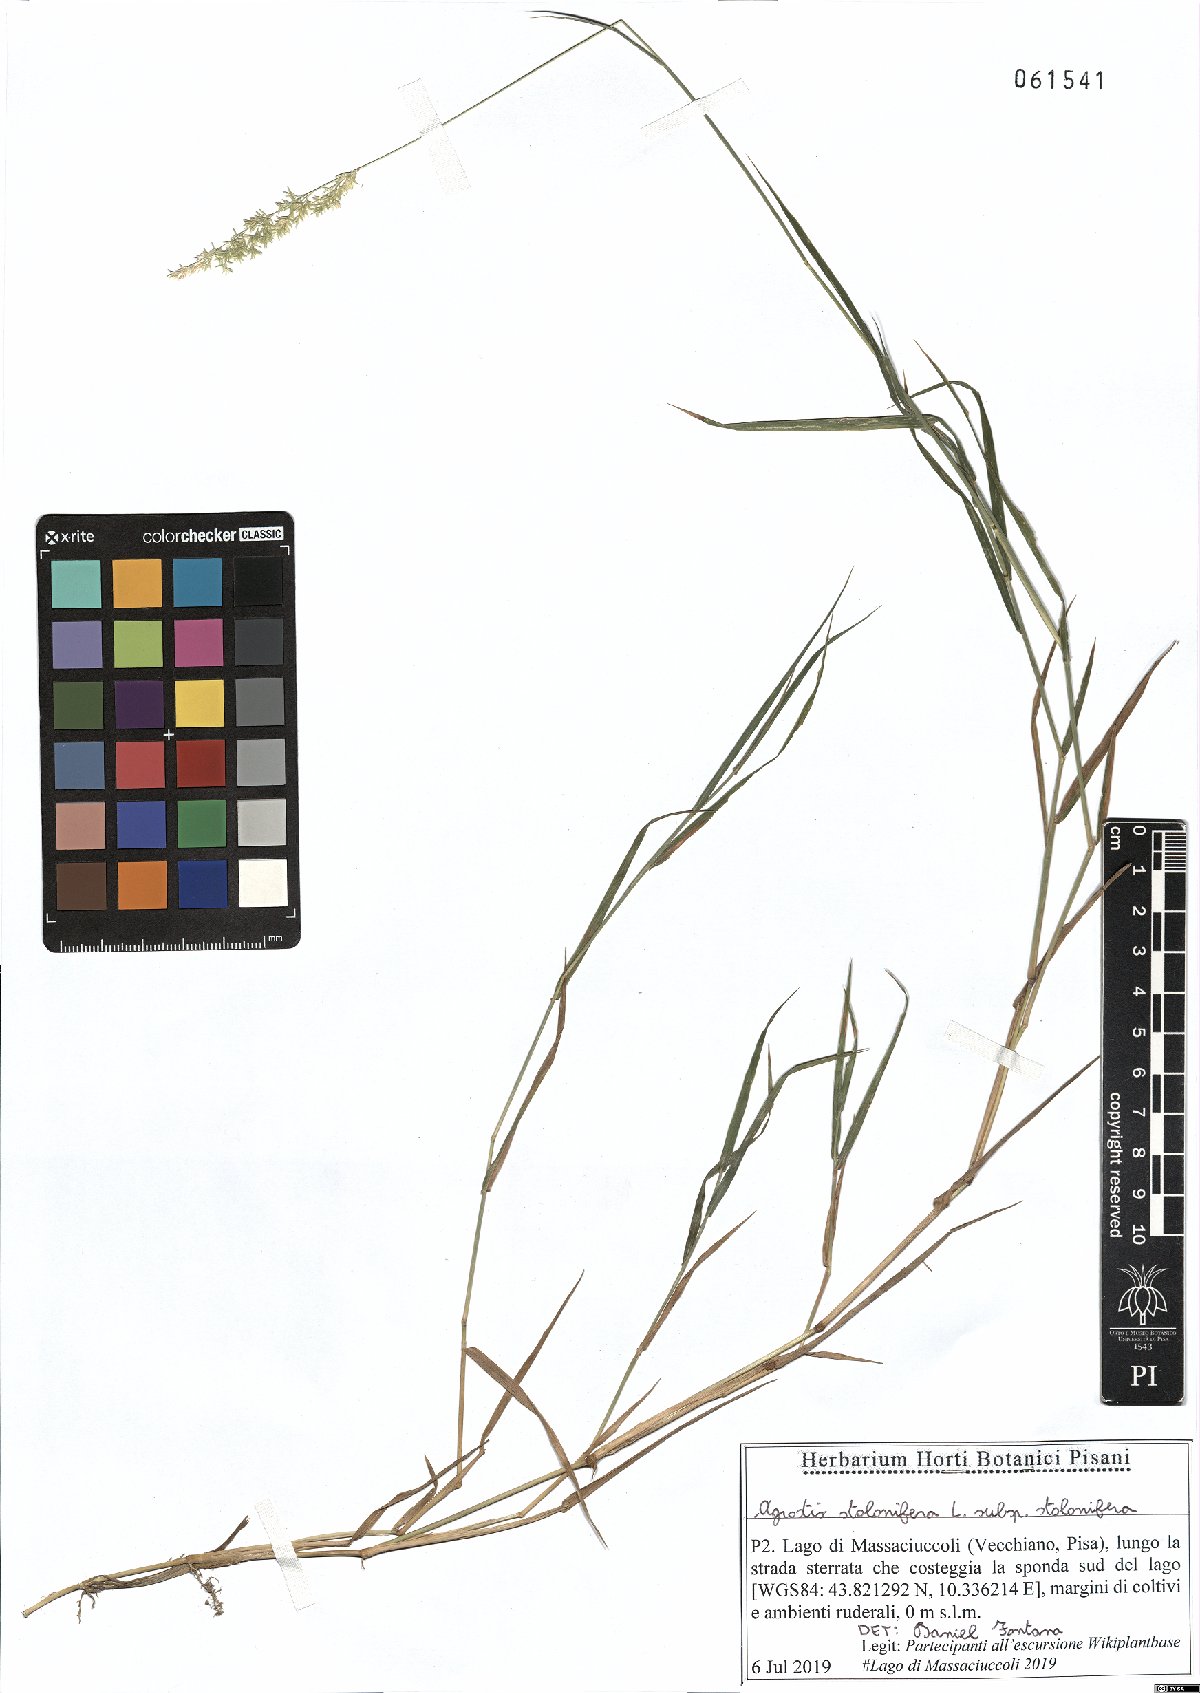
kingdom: Plantae
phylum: Tracheophyta
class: Liliopsida
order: Poales
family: Poaceae
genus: Agrostis
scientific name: Agrostis stolonifera
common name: Creeping bentgrass
